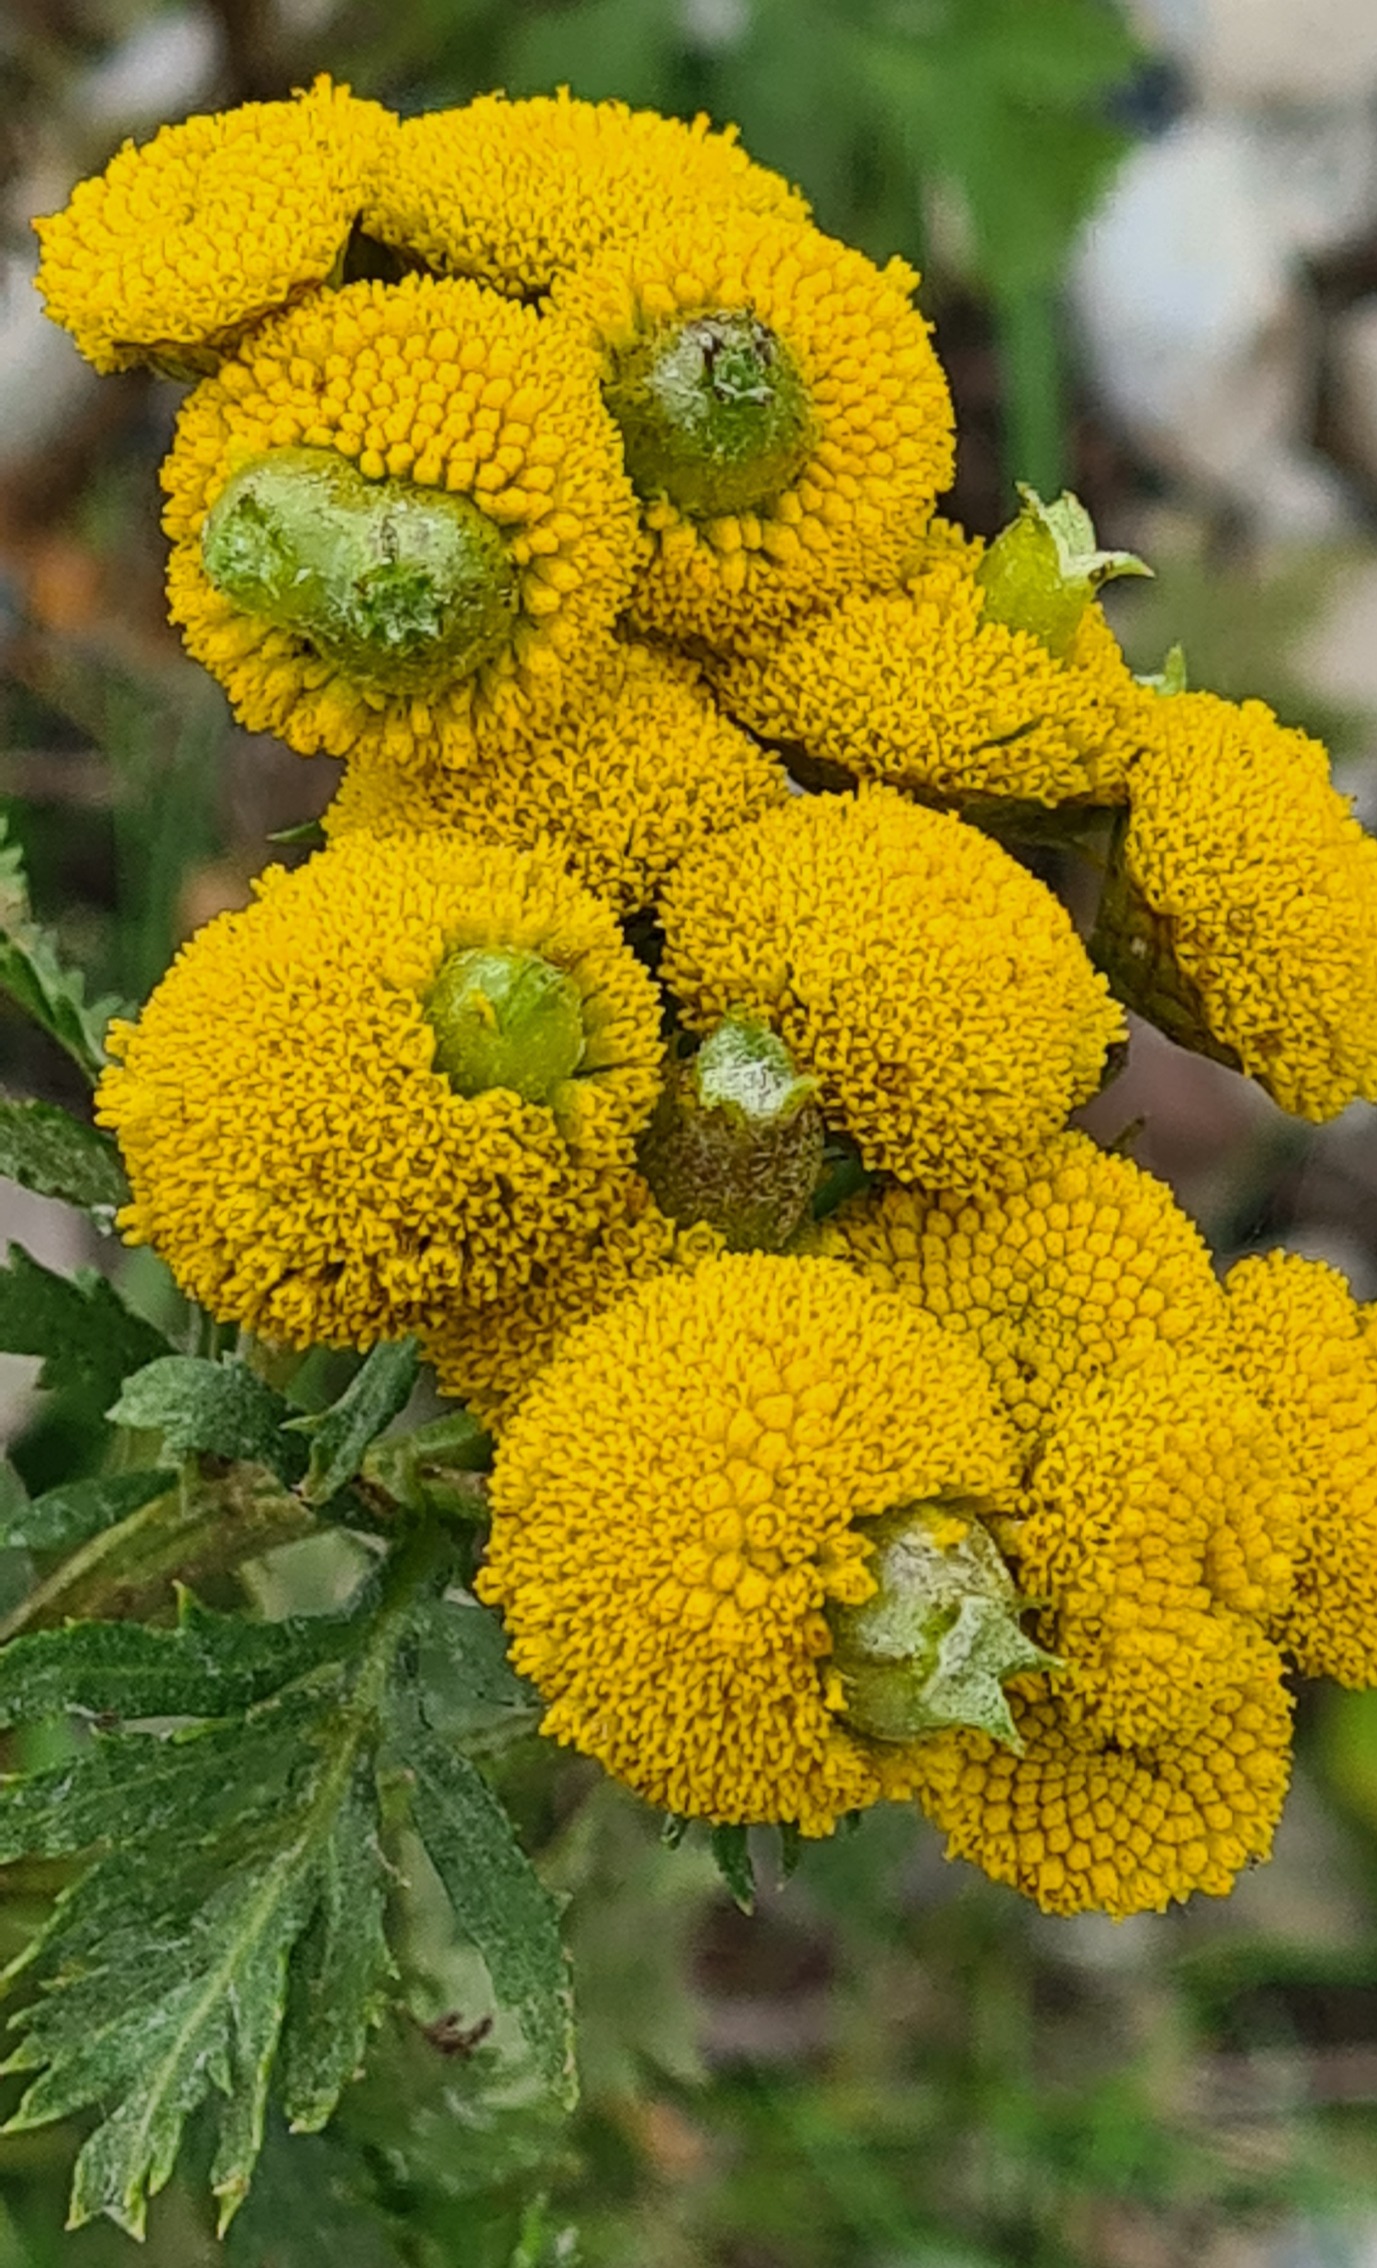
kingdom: Animalia
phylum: Arthropoda
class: Insecta
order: Diptera
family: Cecidomyiidae
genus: Rhopalomyia
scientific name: Rhopalomyia tanaceticolus
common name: Rejnfangalmyg
